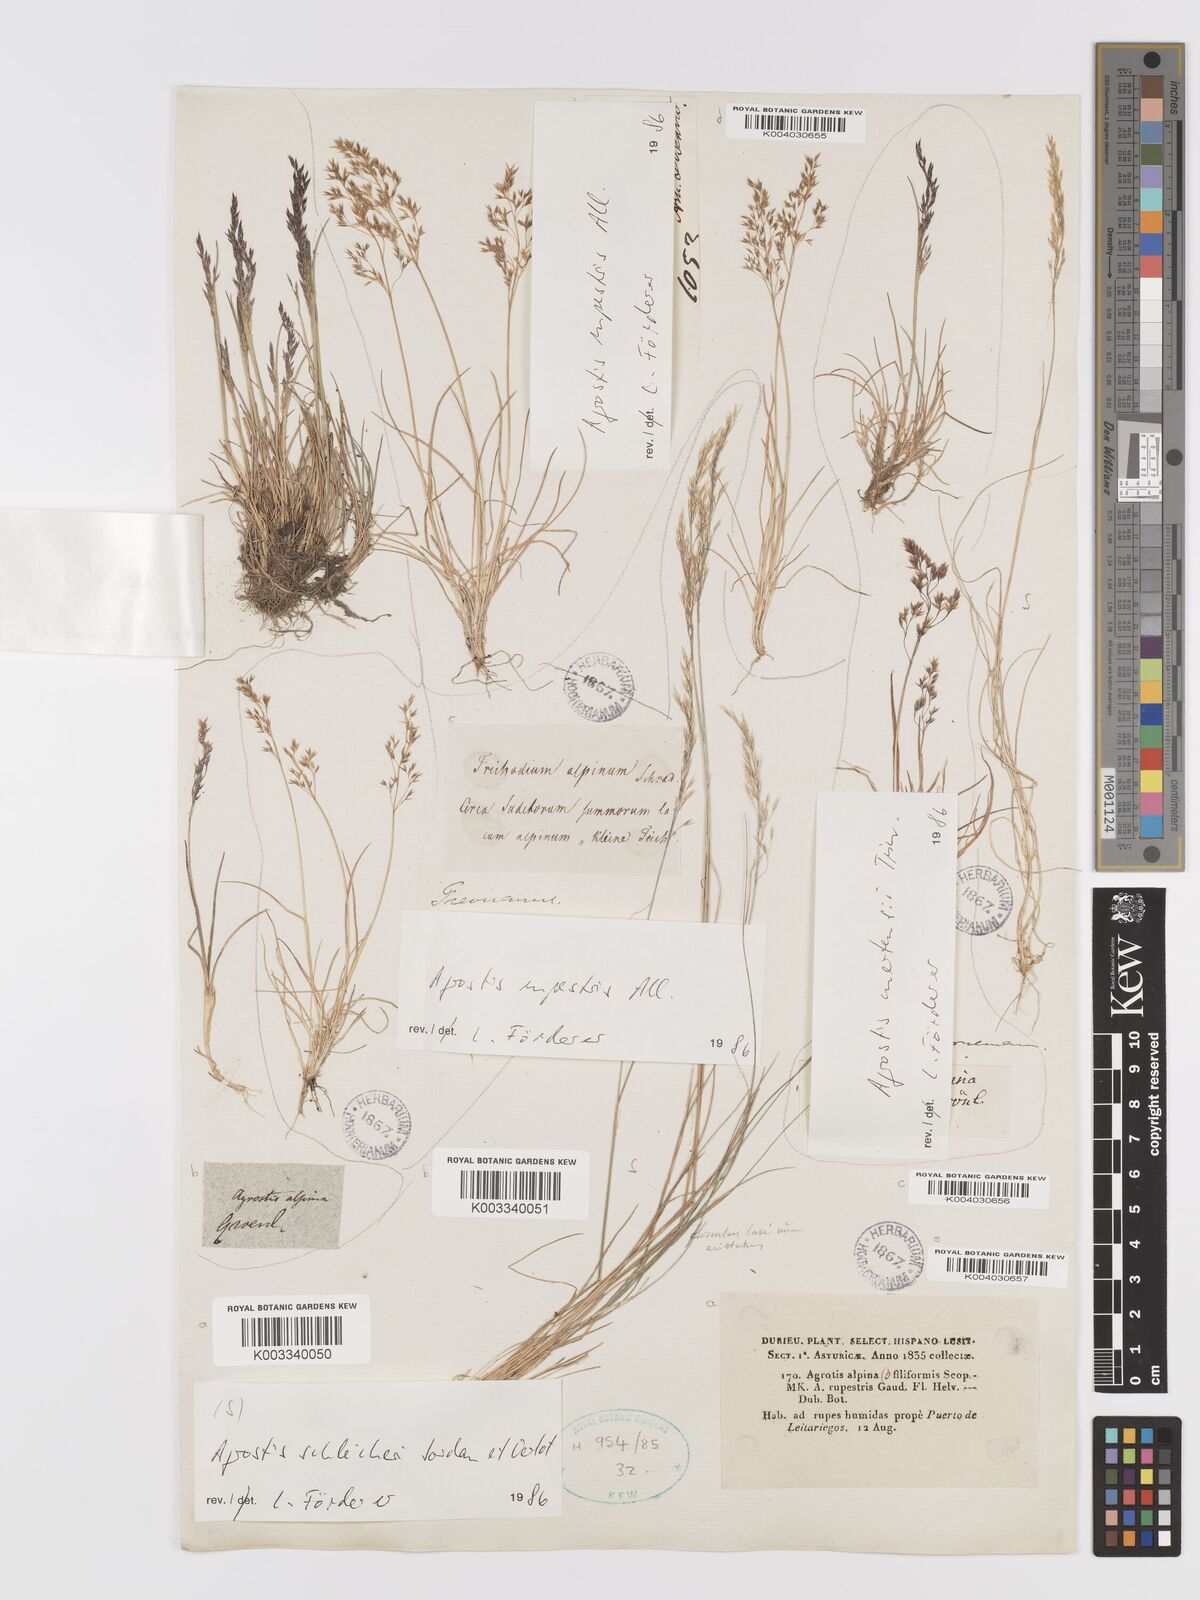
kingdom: Plantae
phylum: Tracheophyta
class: Liliopsida
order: Poales
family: Poaceae
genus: Alpagrostis
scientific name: Alpagrostis schleicheri
